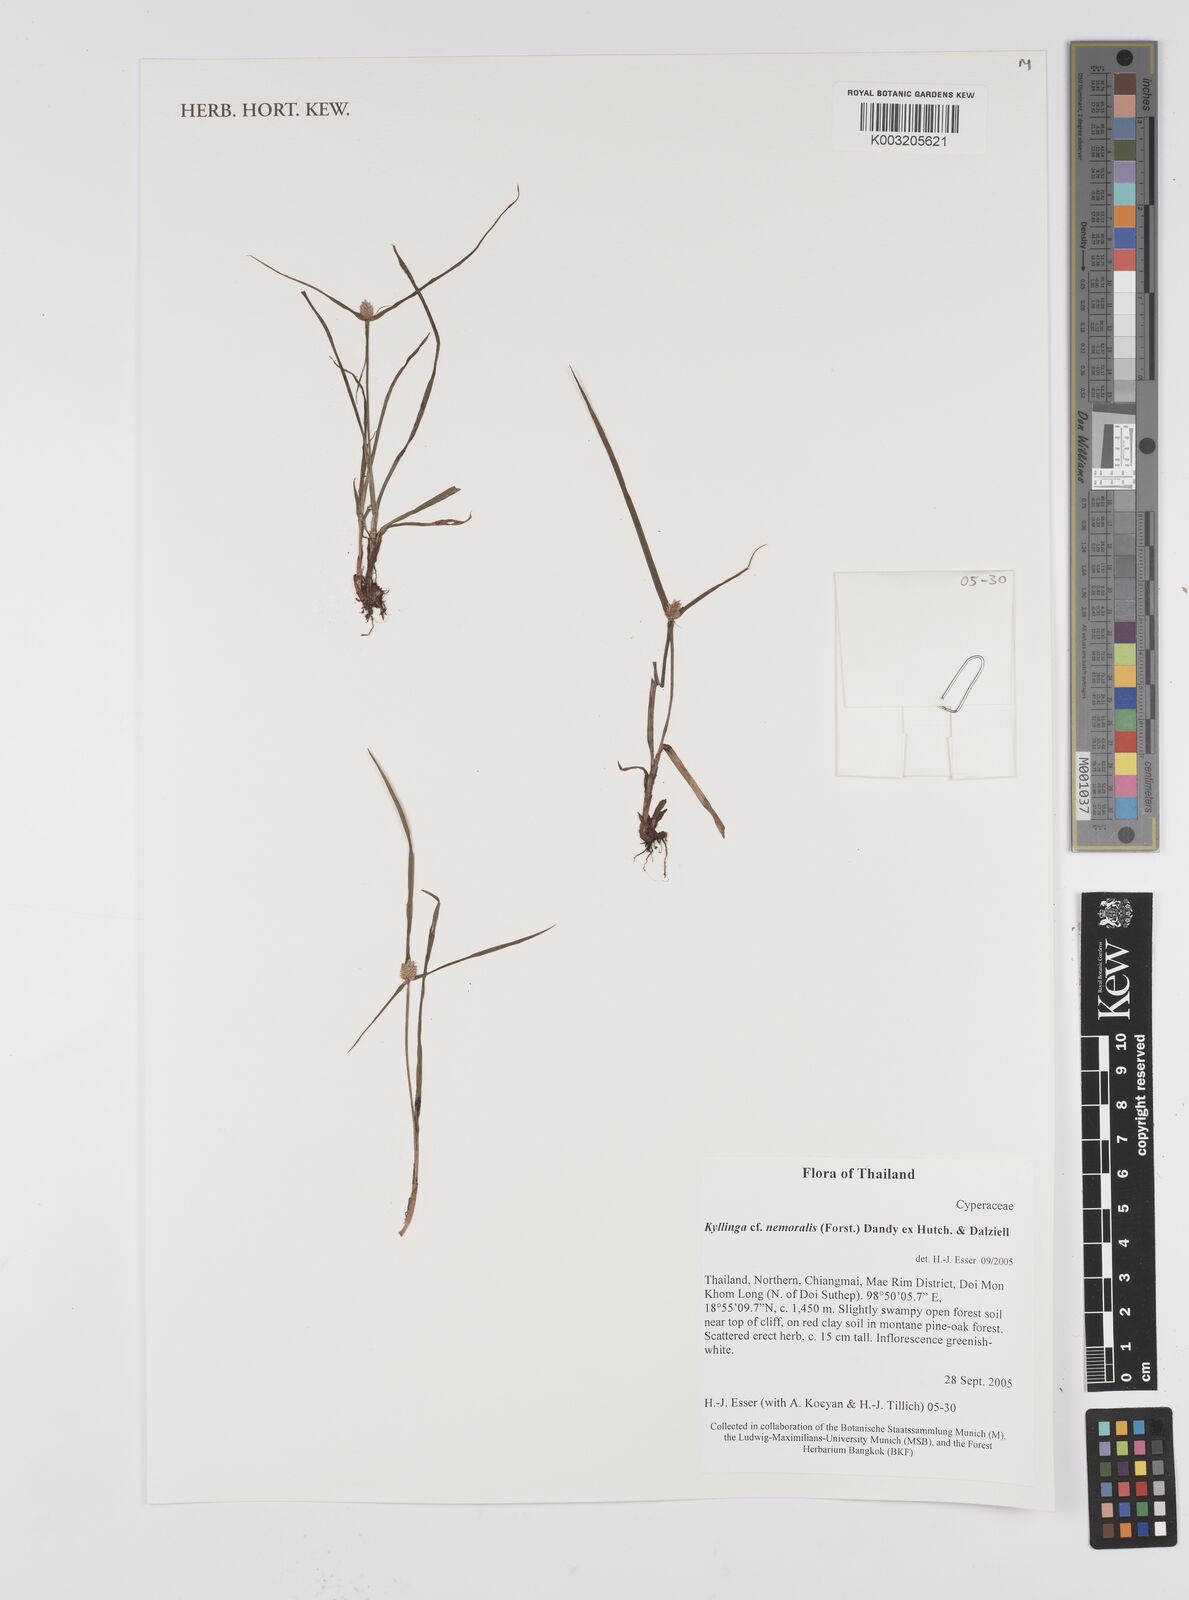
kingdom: Plantae
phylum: Tracheophyta
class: Liliopsida
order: Poales
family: Cyperaceae
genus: Cyperus
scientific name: Cyperus nemoralis
